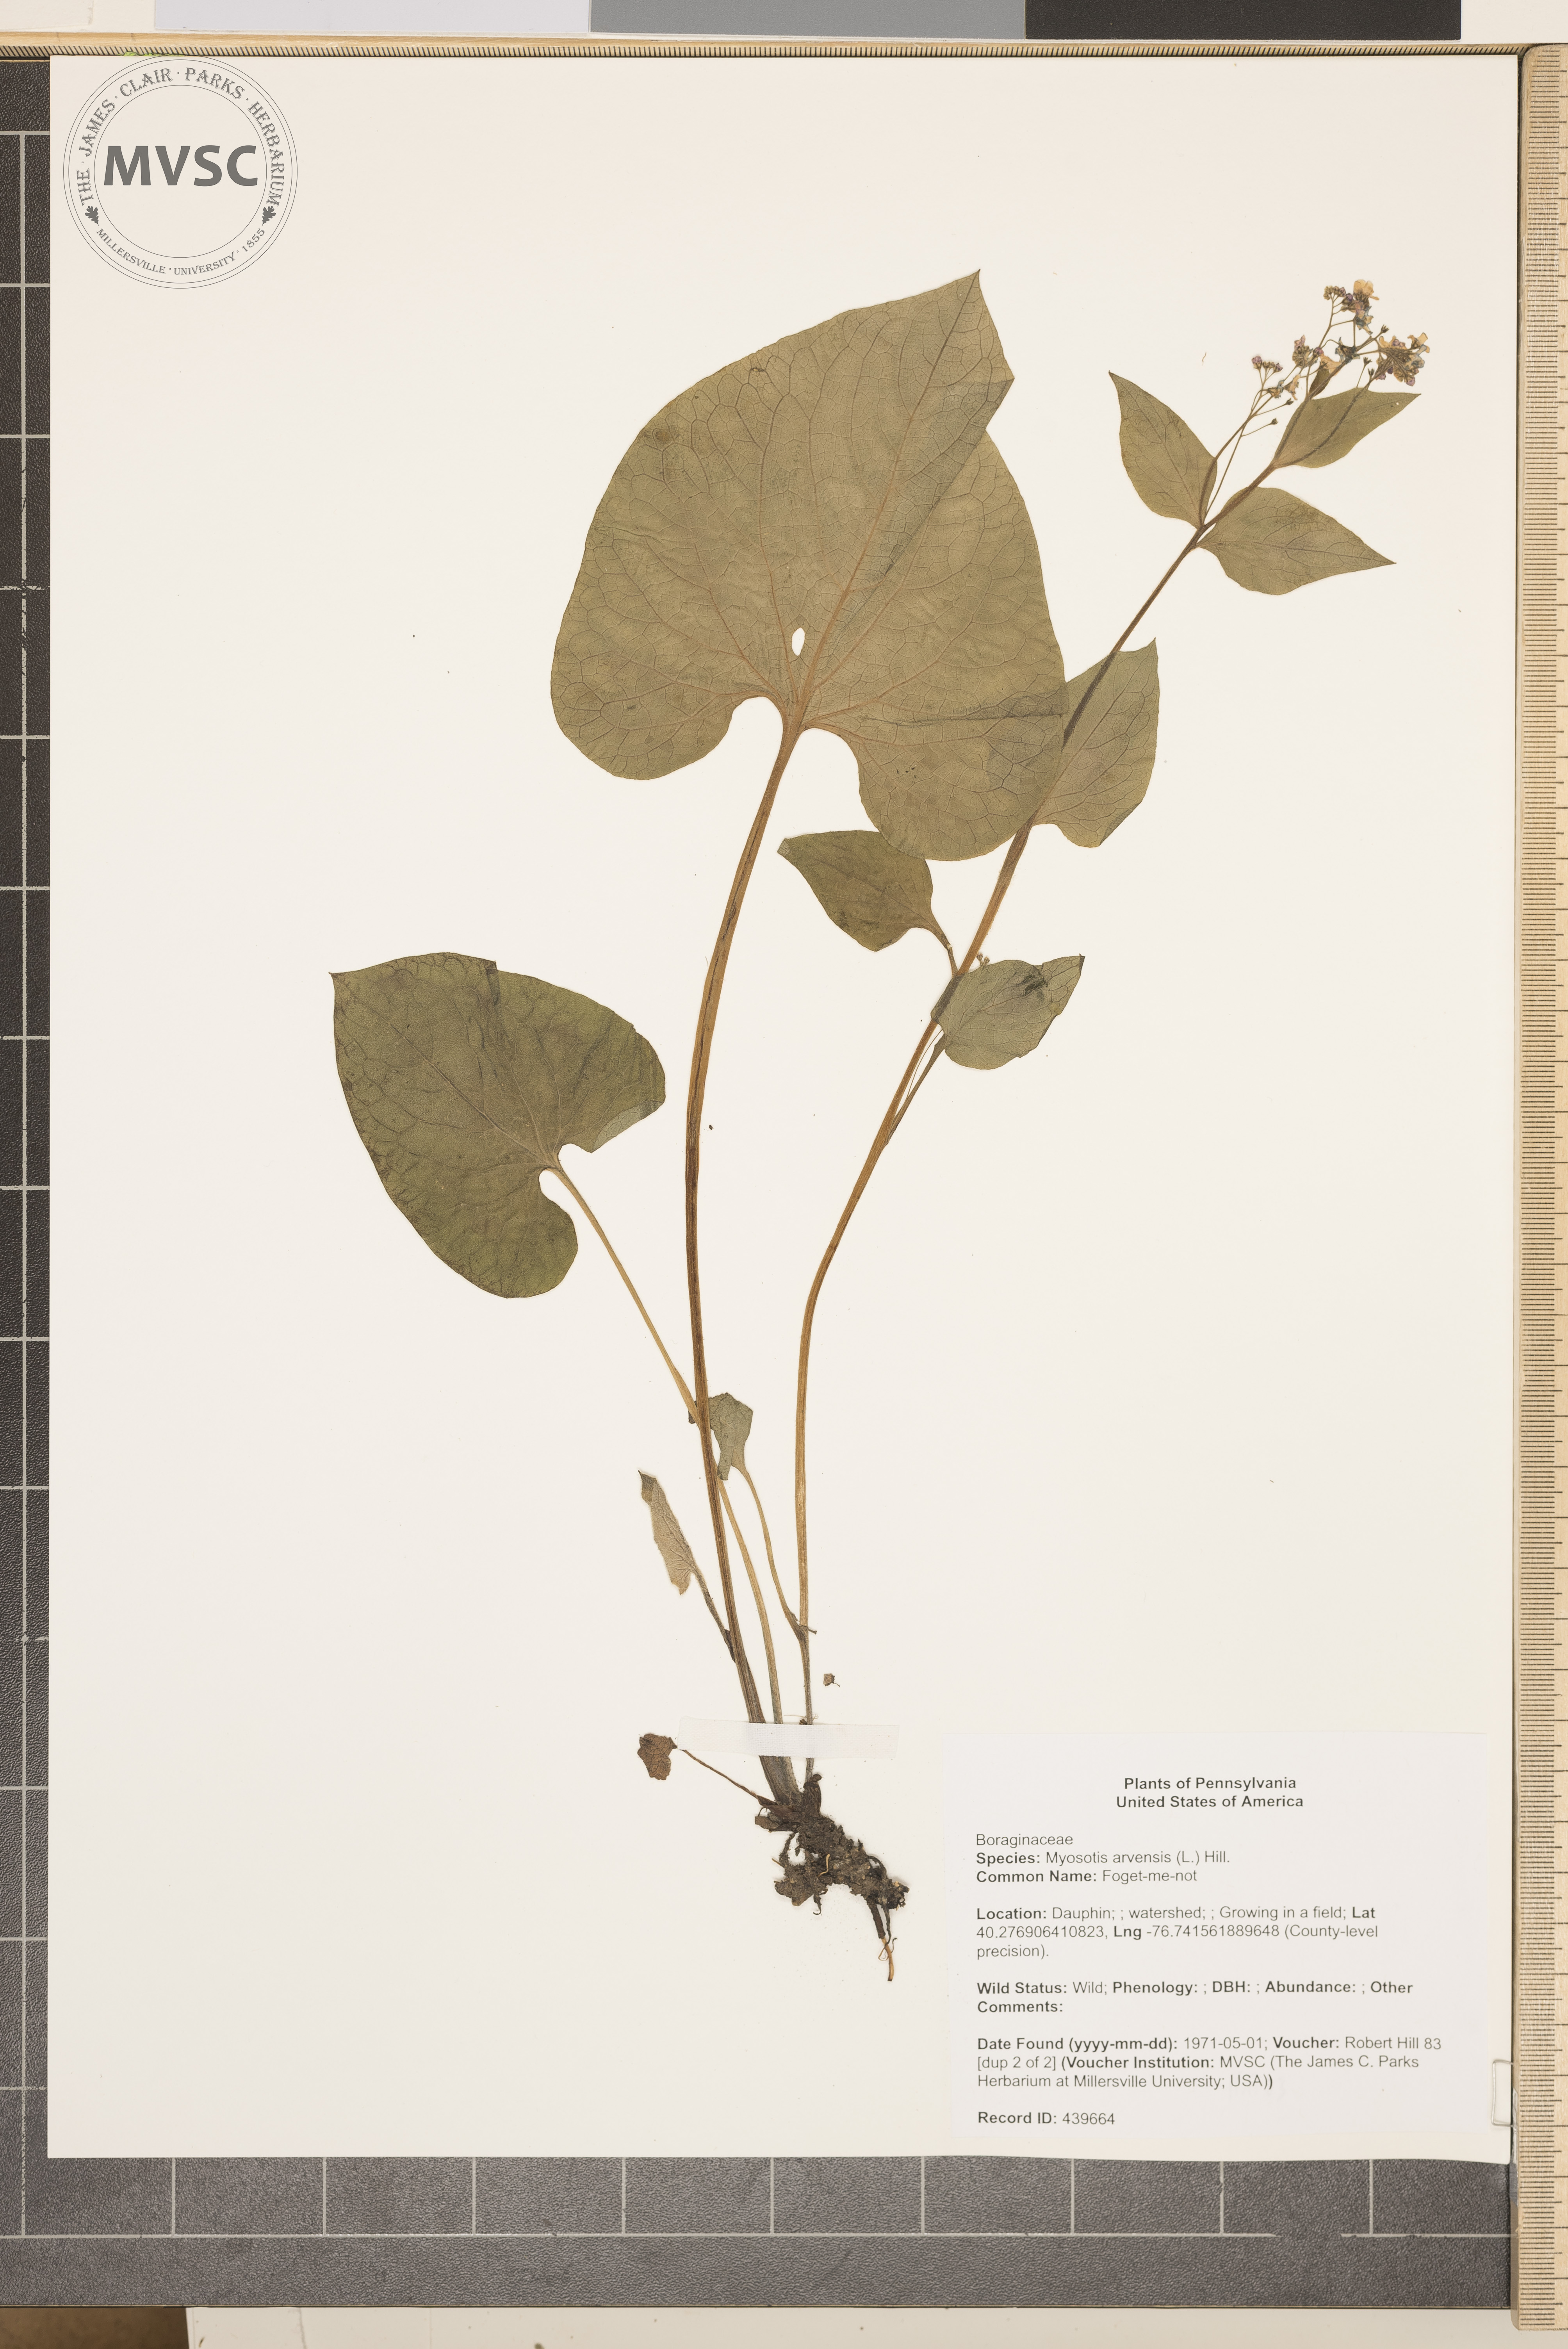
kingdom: Plantae
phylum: Tracheophyta
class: Magnoliopsida
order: Boraginales
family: Boraginaceae
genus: Brunnera
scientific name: Brunnera macrophylla
